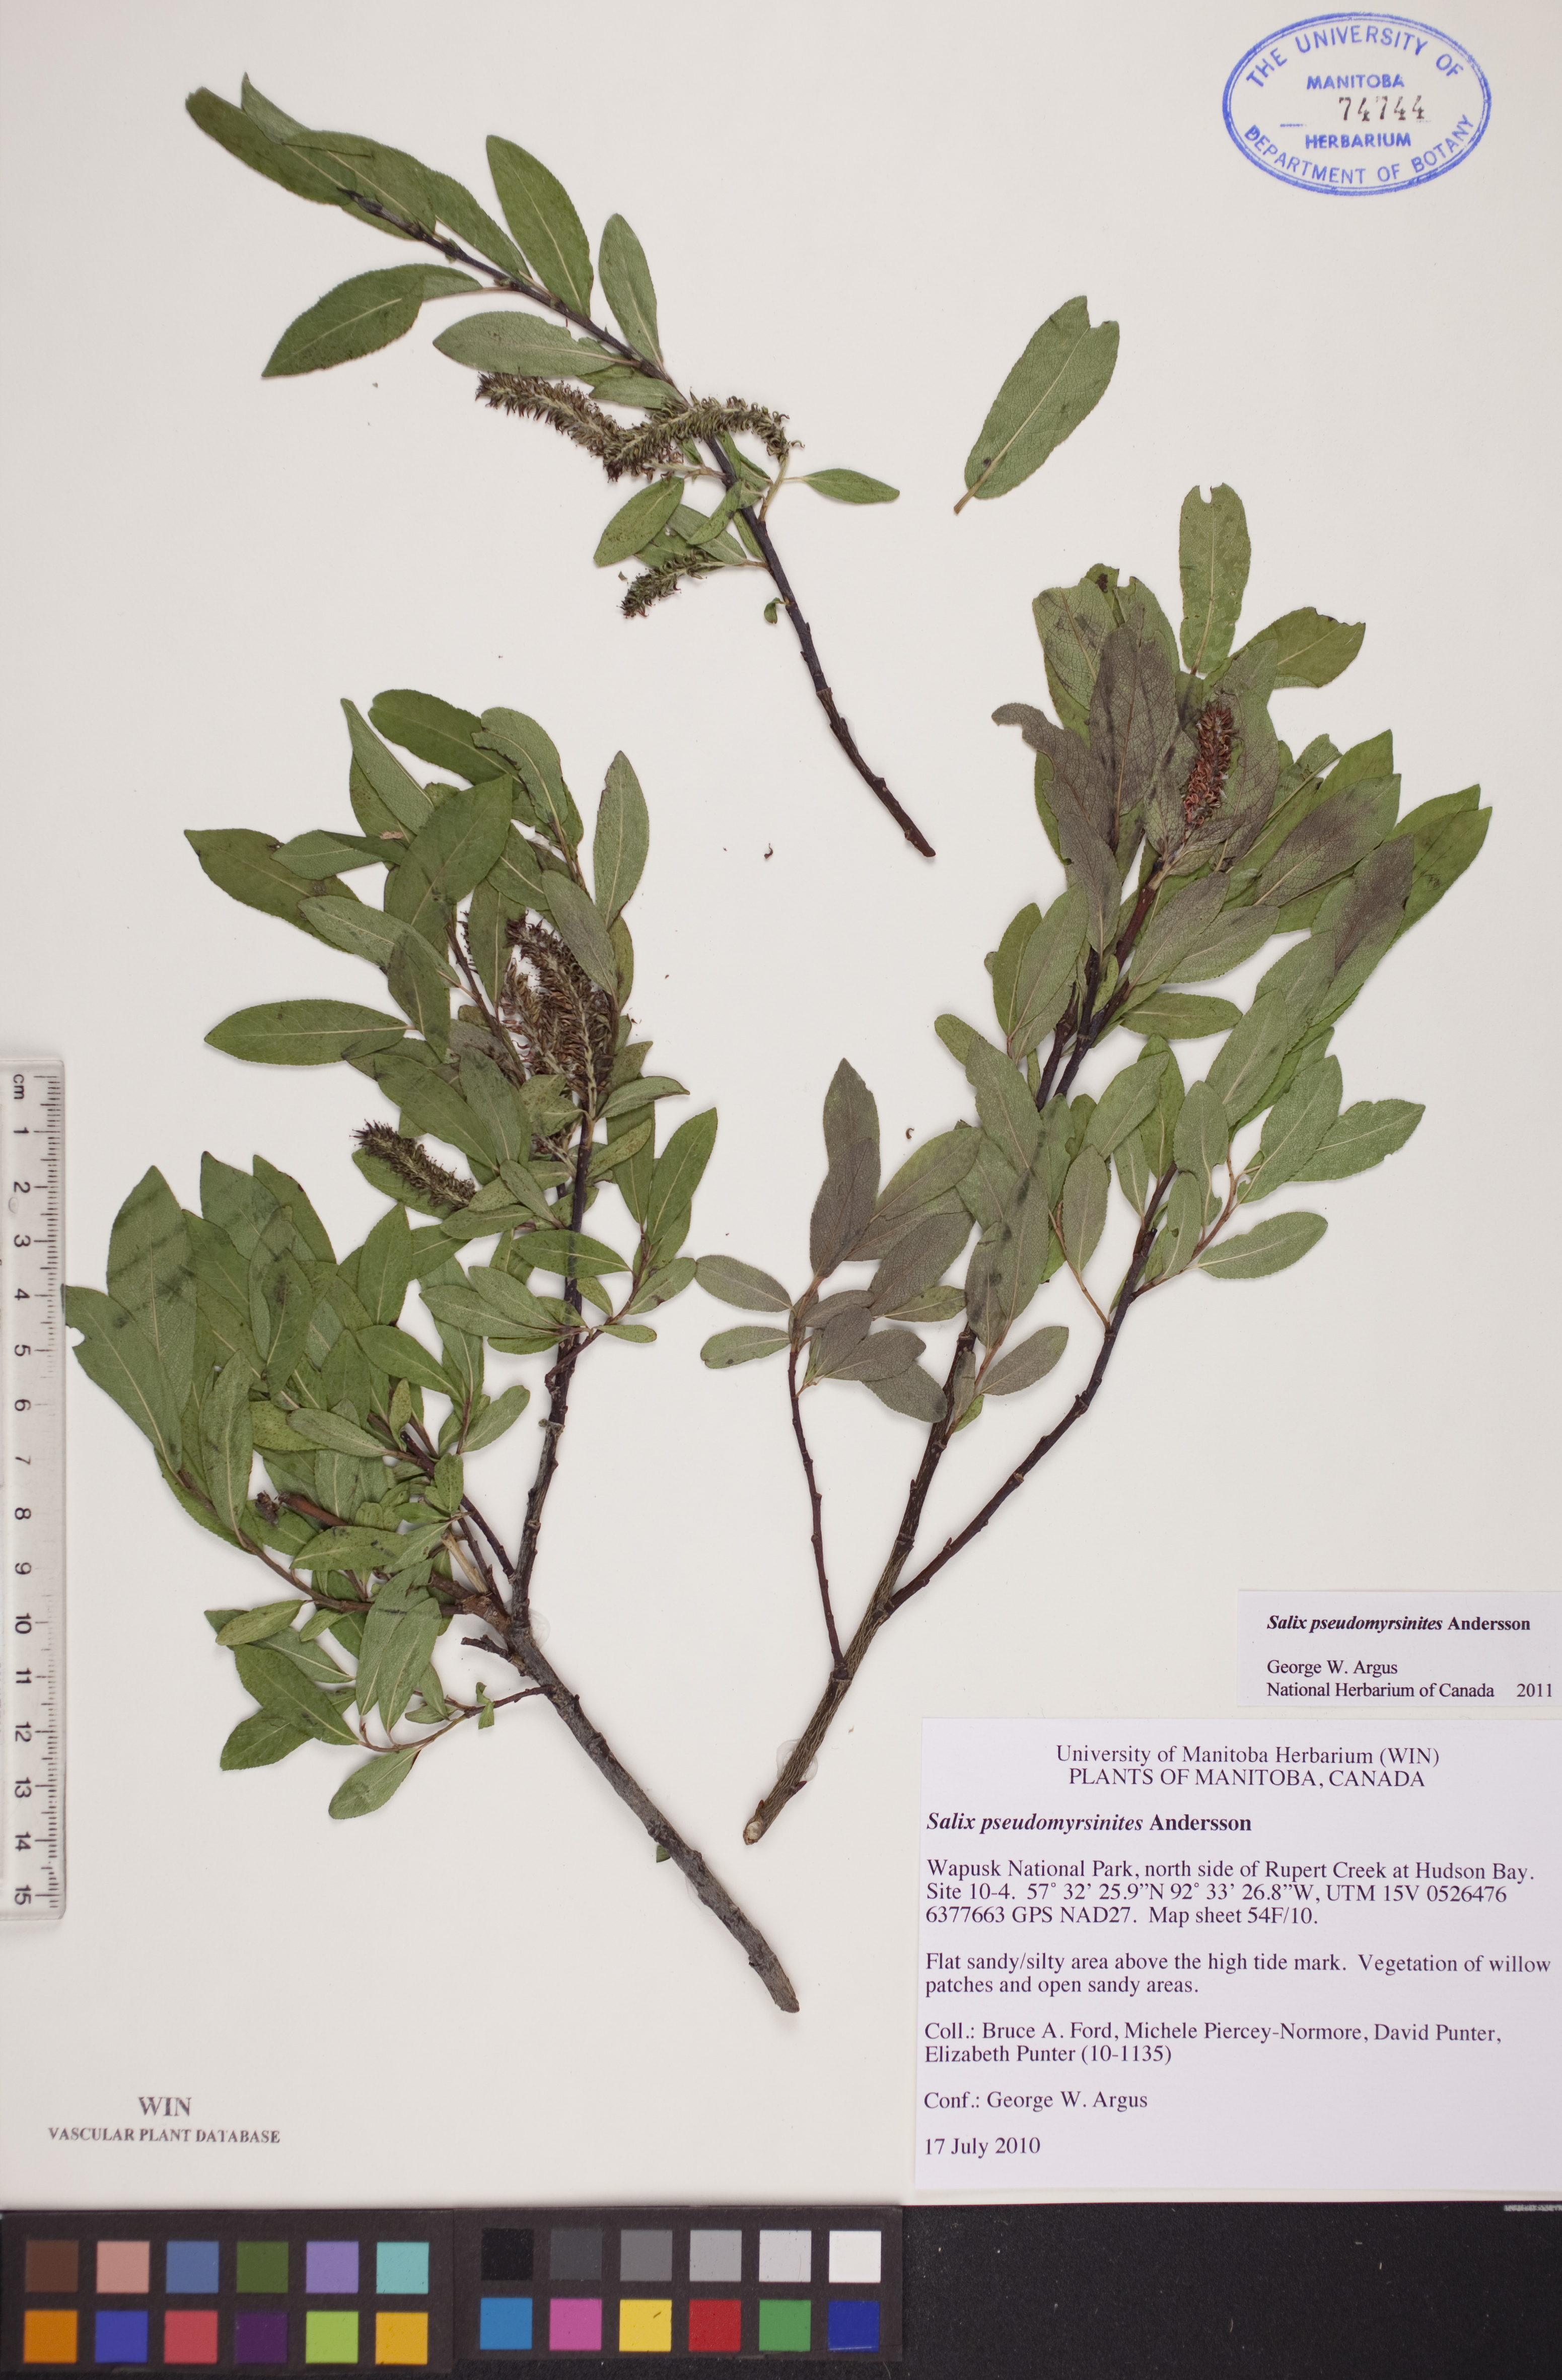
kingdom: Plantae
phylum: Tracheophyta
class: Magnoliopsida
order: Malpighiales
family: Salicaceae
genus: Salix
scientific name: Salix pseudomyrsinites
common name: Tall blueberry willow
